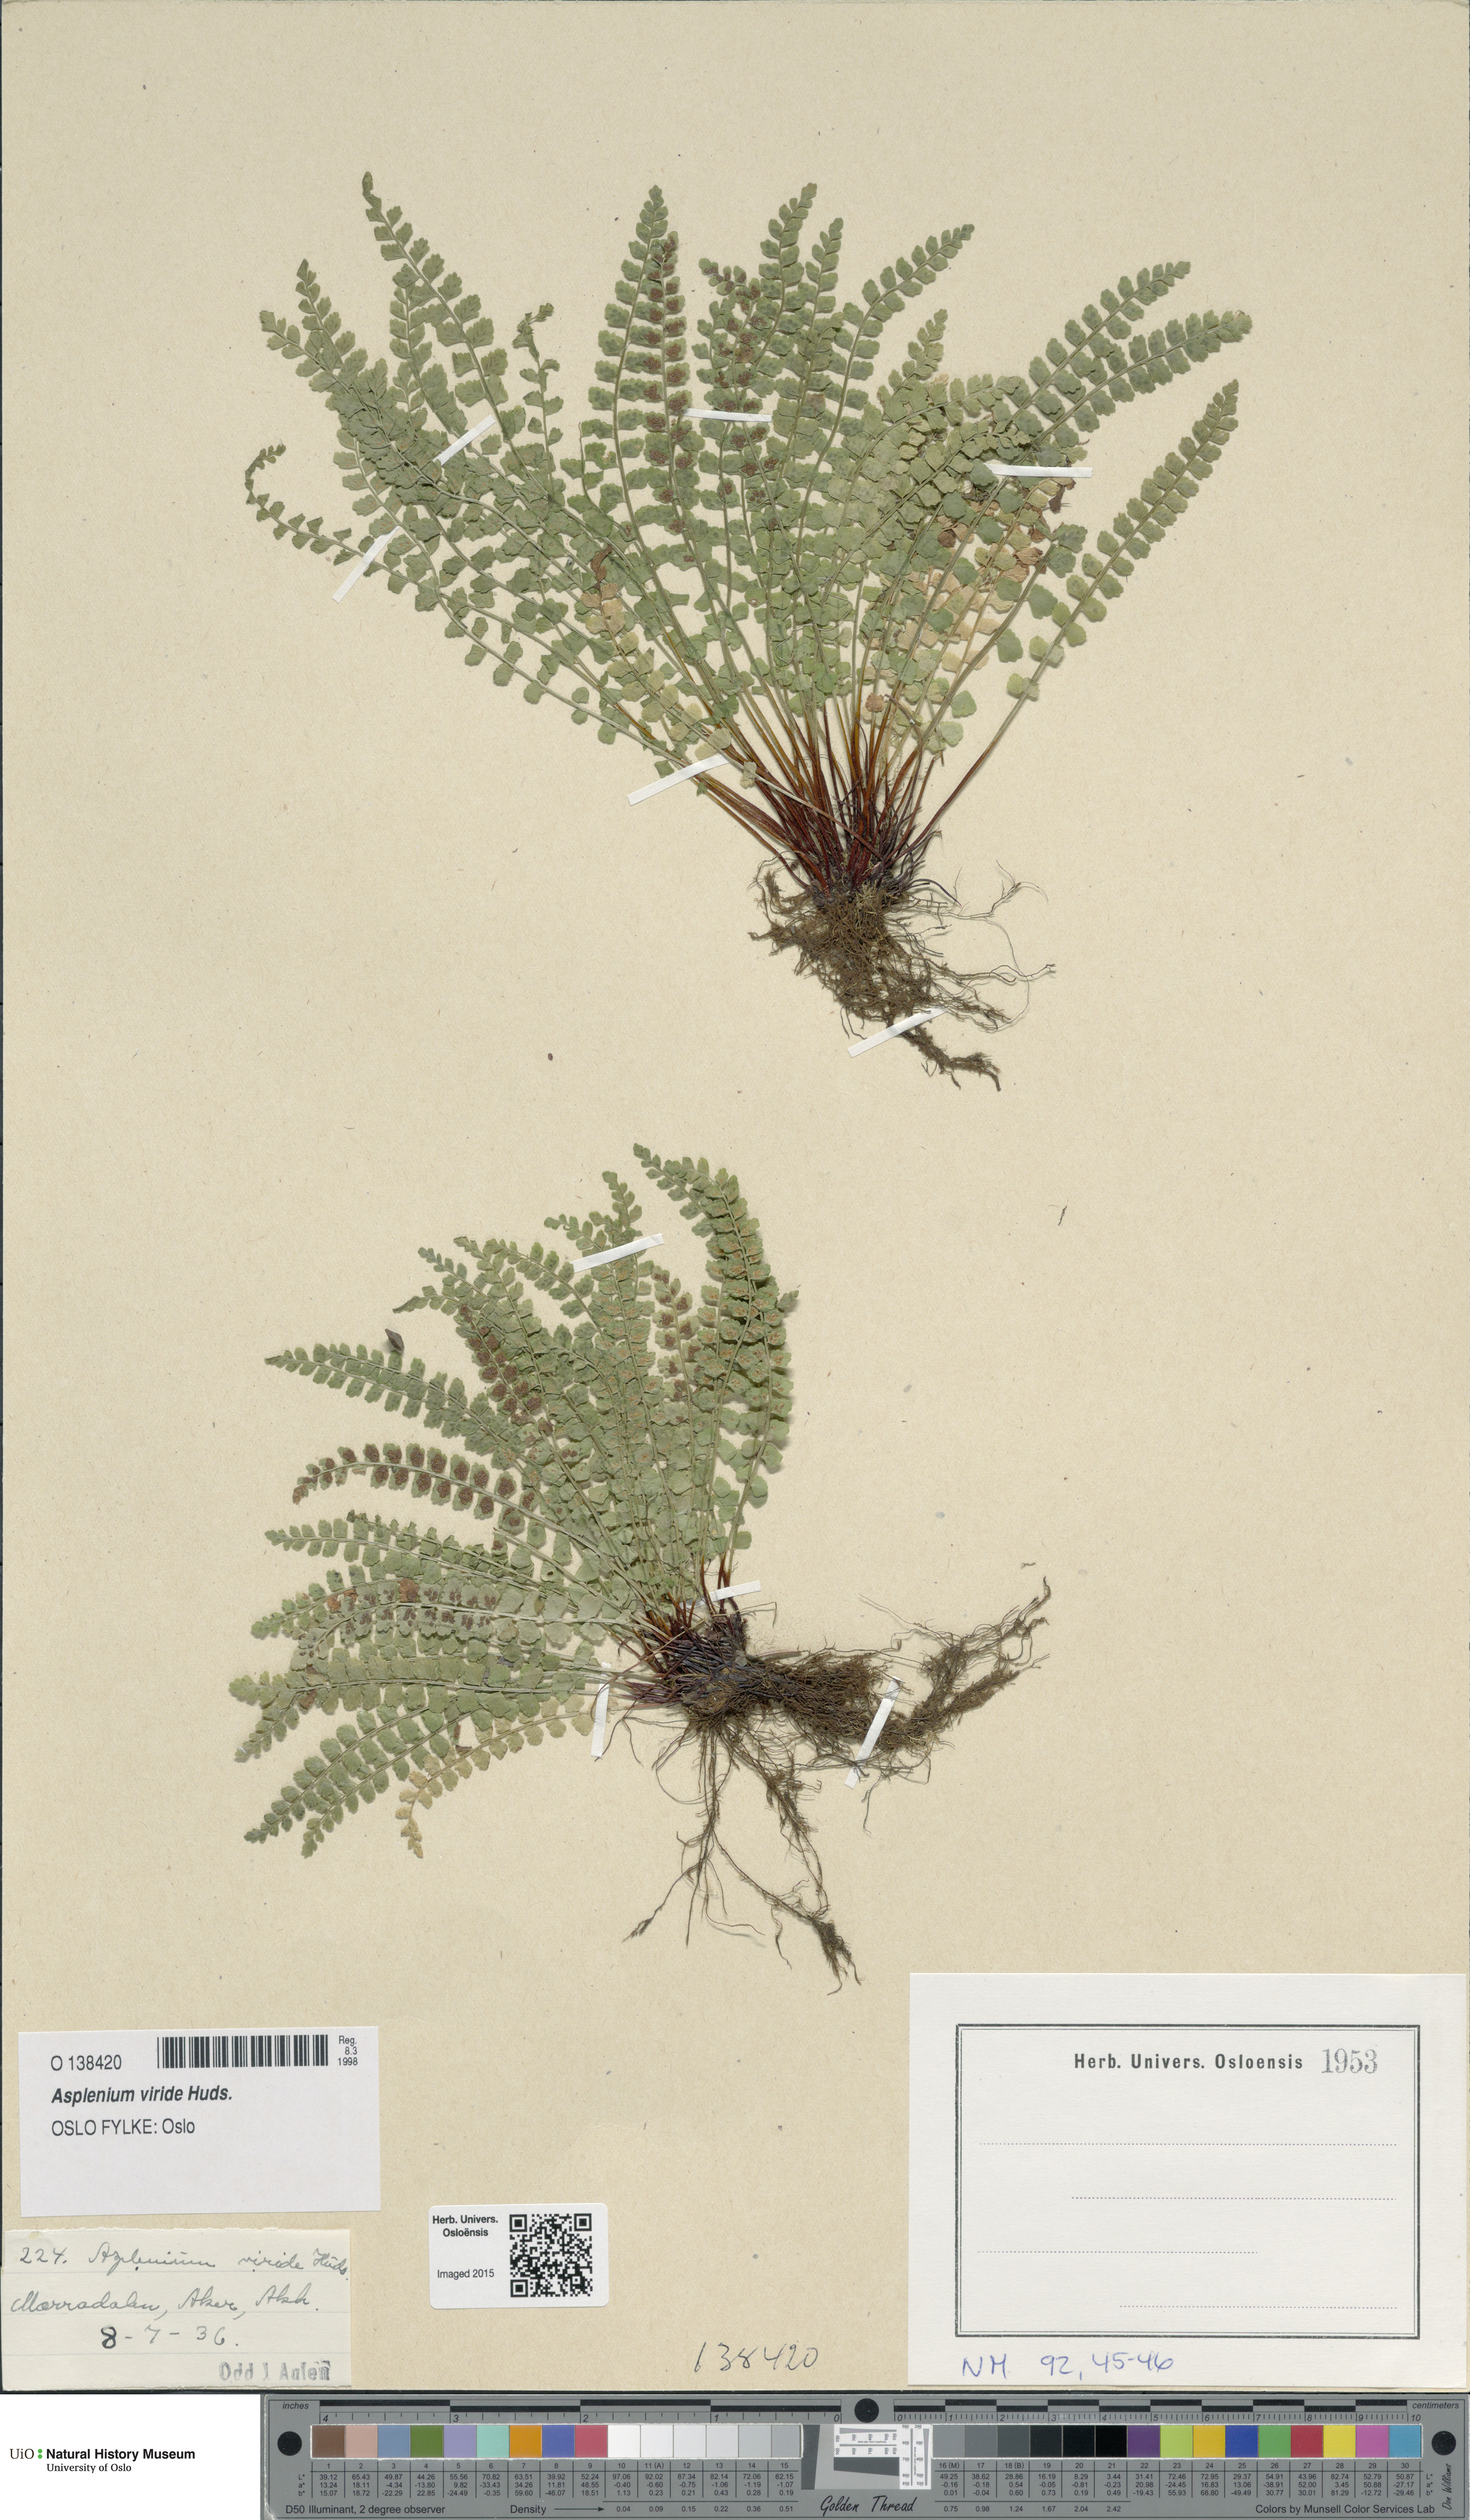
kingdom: Plantae
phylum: Tracheophyta
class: Polypodiopsida
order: Polypodiales
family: Aspleniaceae
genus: Asplenium
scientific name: Asplenium viride
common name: Green spleenwort
